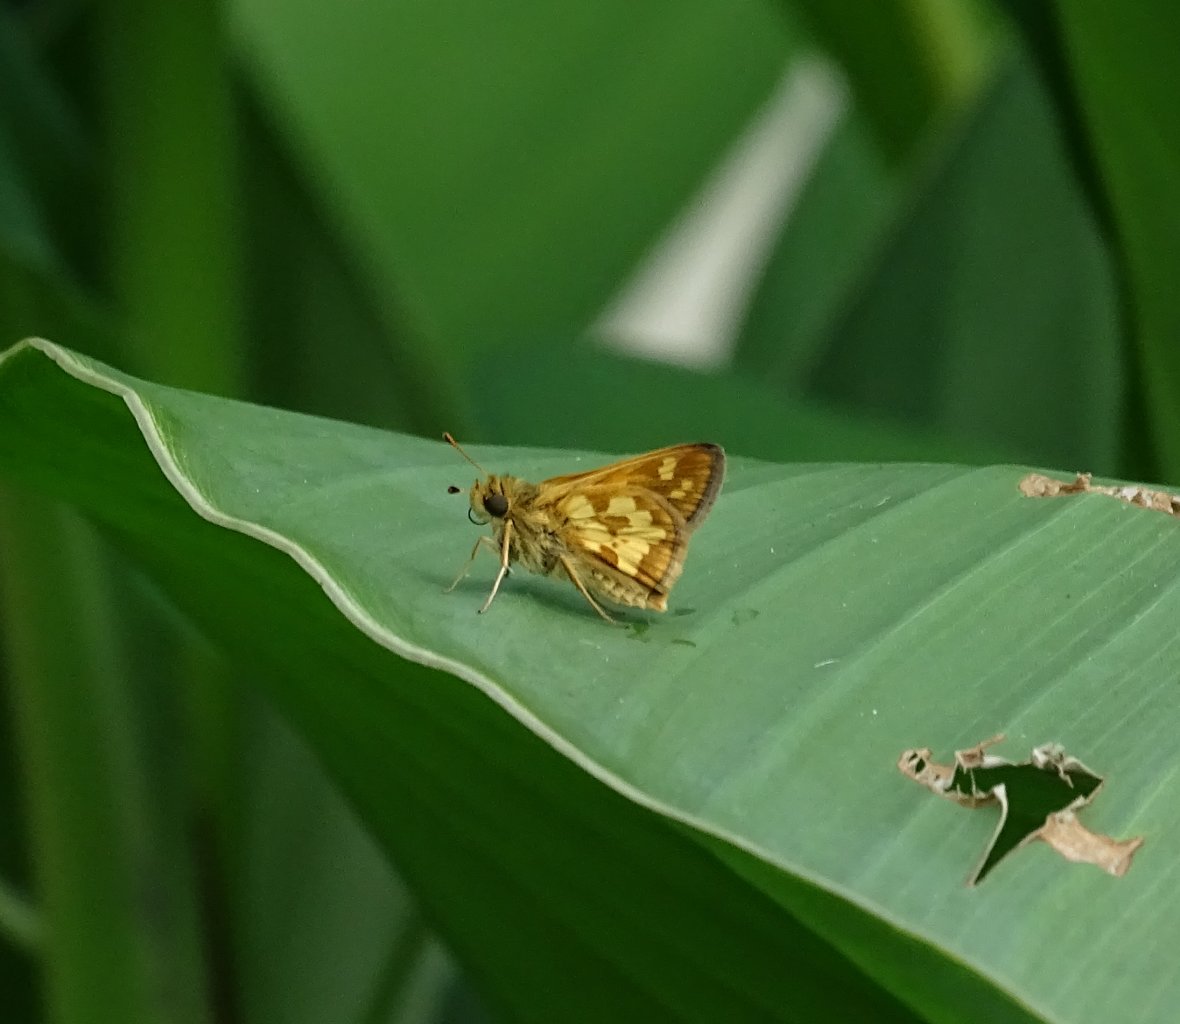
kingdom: Animalia
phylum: Arthropoda
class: Insecta
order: Lepidoptera
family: Hesperiidae
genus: Polites
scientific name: Polites coras
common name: Peck's Skipper
